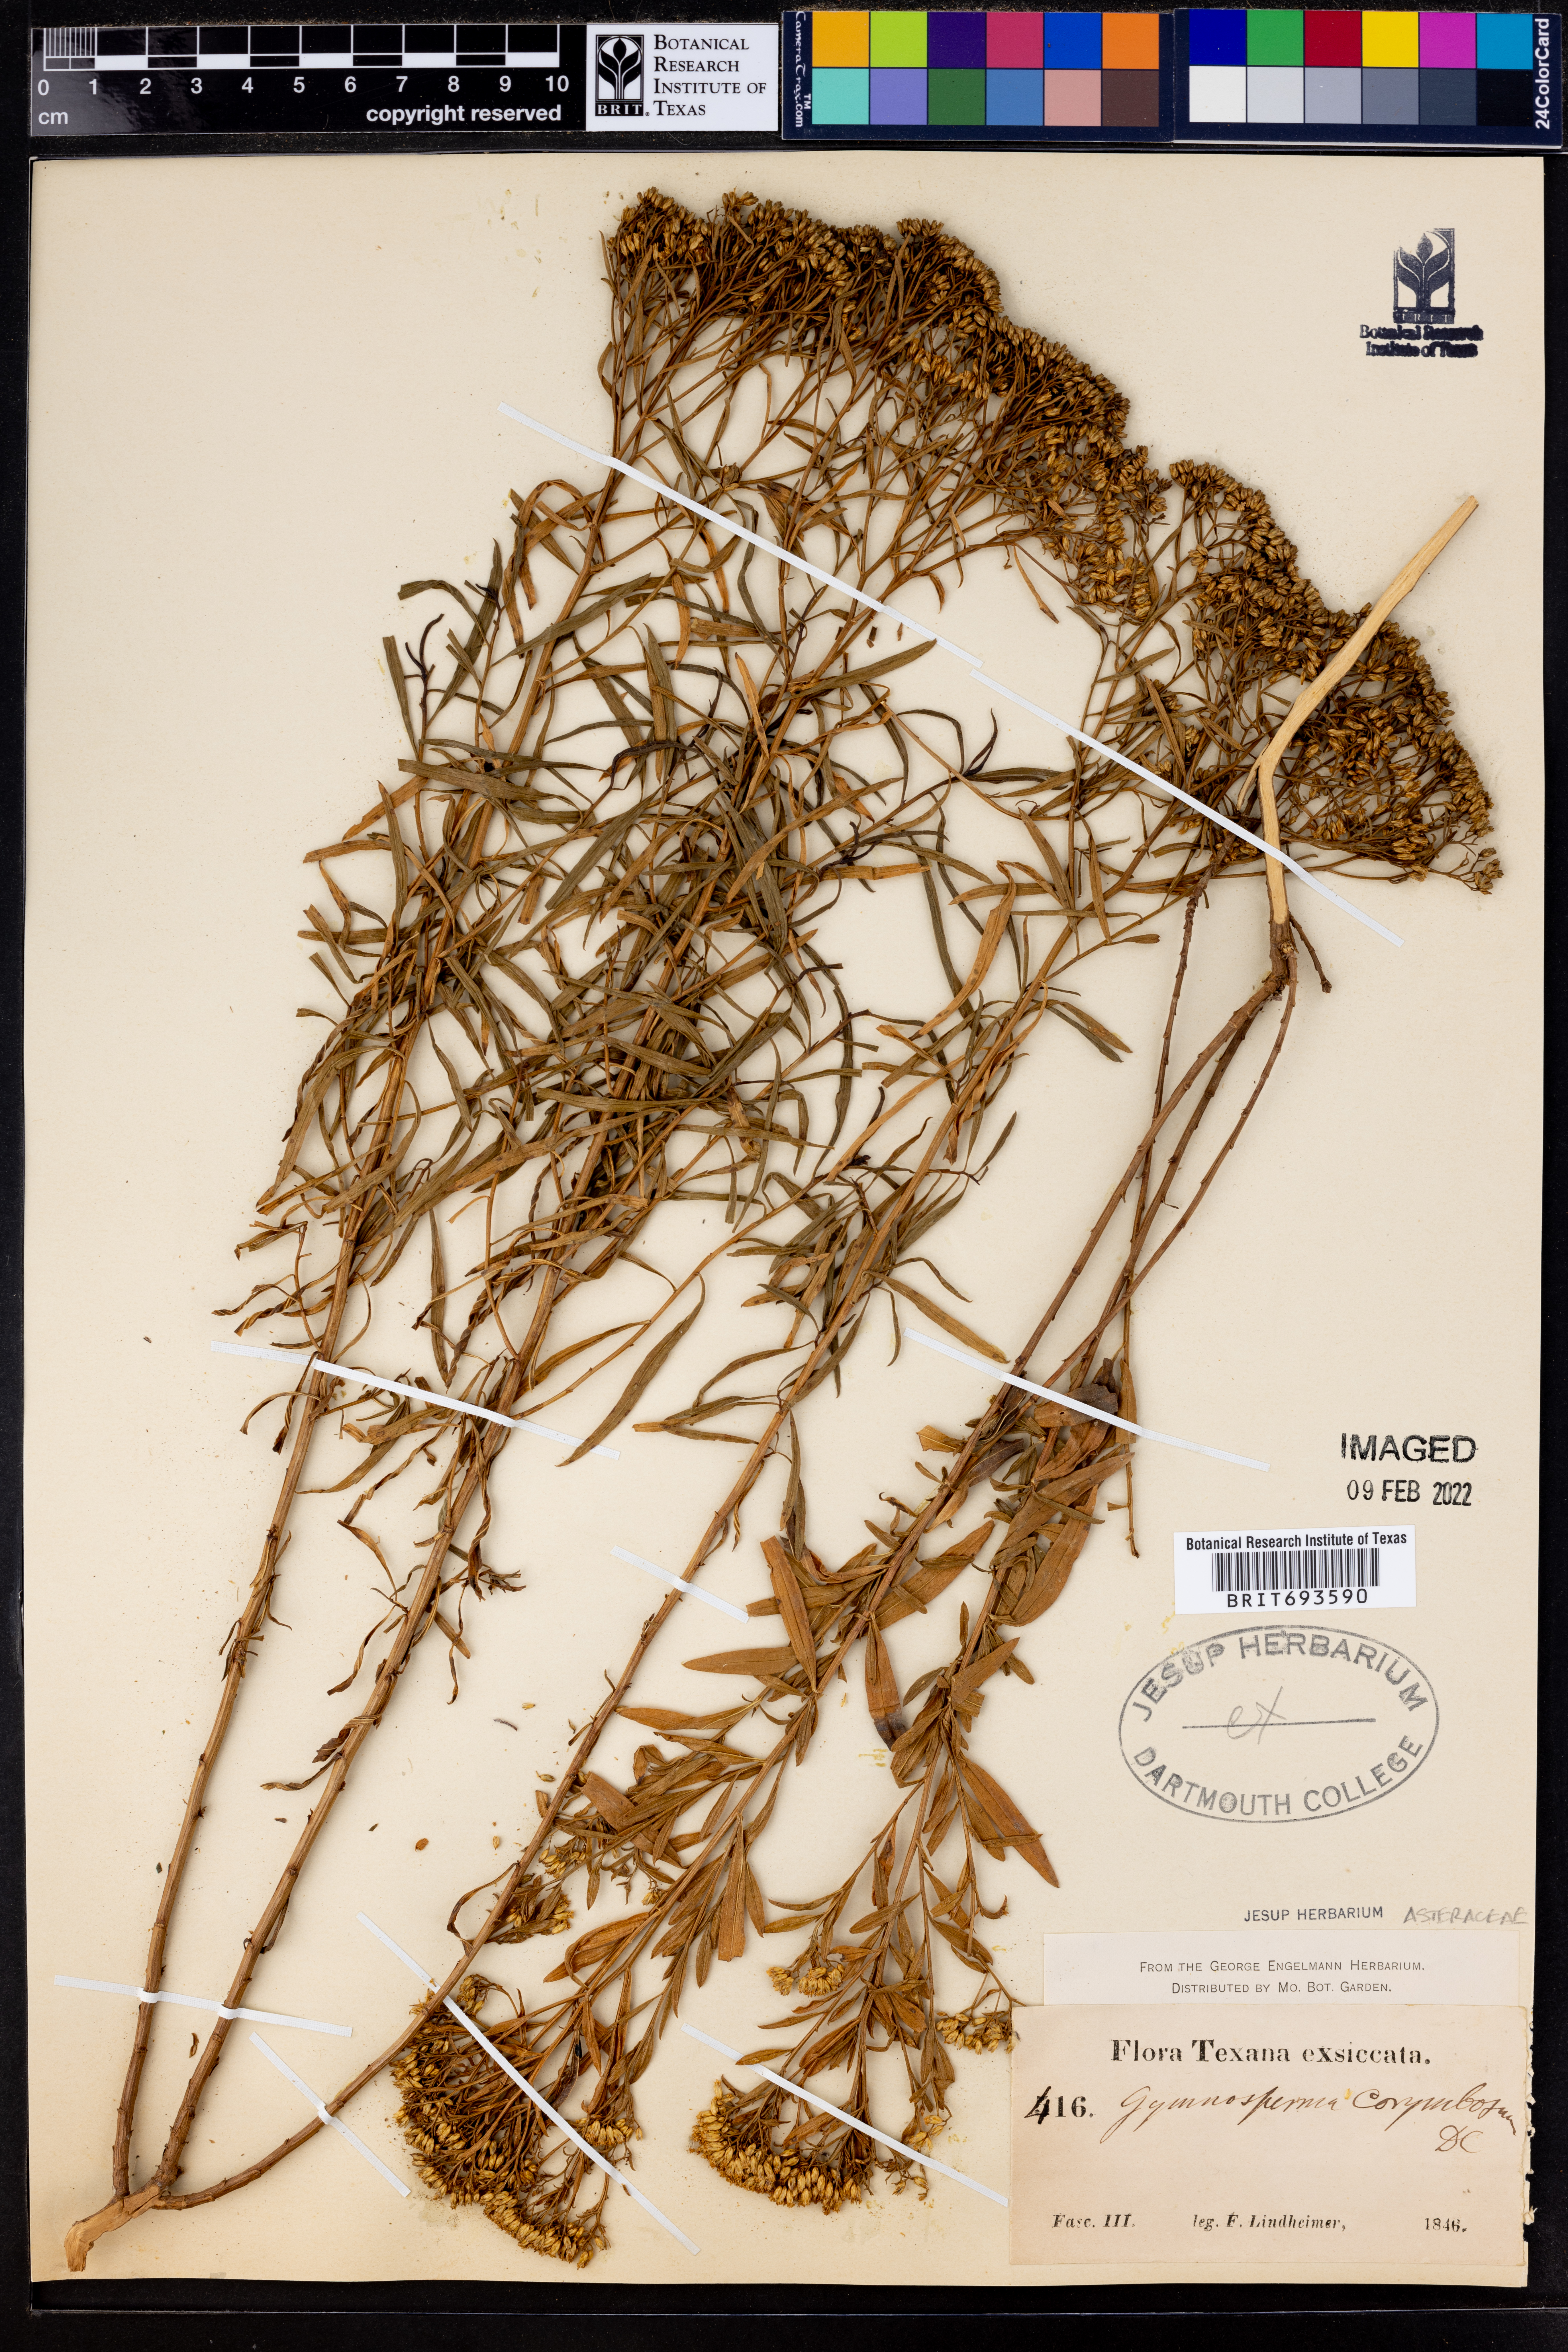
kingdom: Plantae
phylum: Tracheophyta
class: Magnoliopsida
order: Asterales
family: Asteraceae
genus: Gymnosperma
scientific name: Gymnosperma glutinosum
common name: Gumhead
